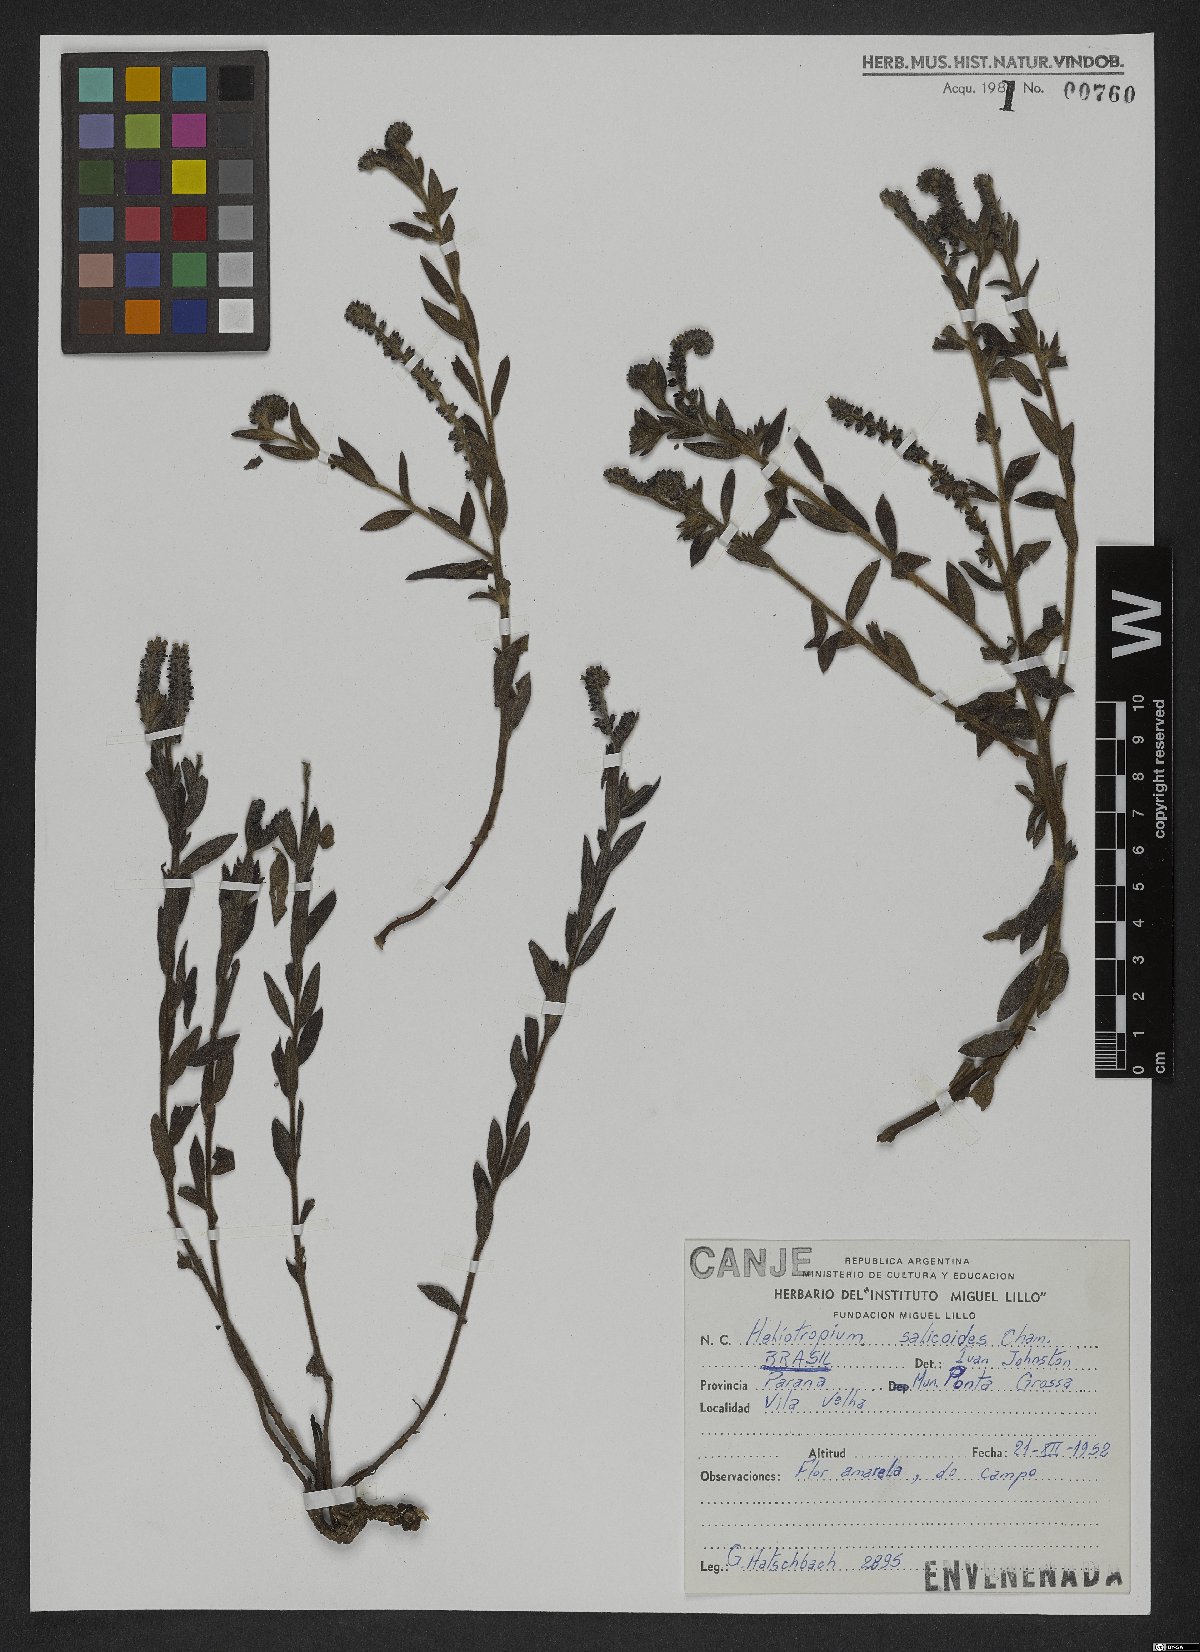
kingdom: Plantae
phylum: Tracheophyta
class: Magnoliopsida
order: Boraginales
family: Heliotropiaceae
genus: Euploca
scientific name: Euploca salicoides
